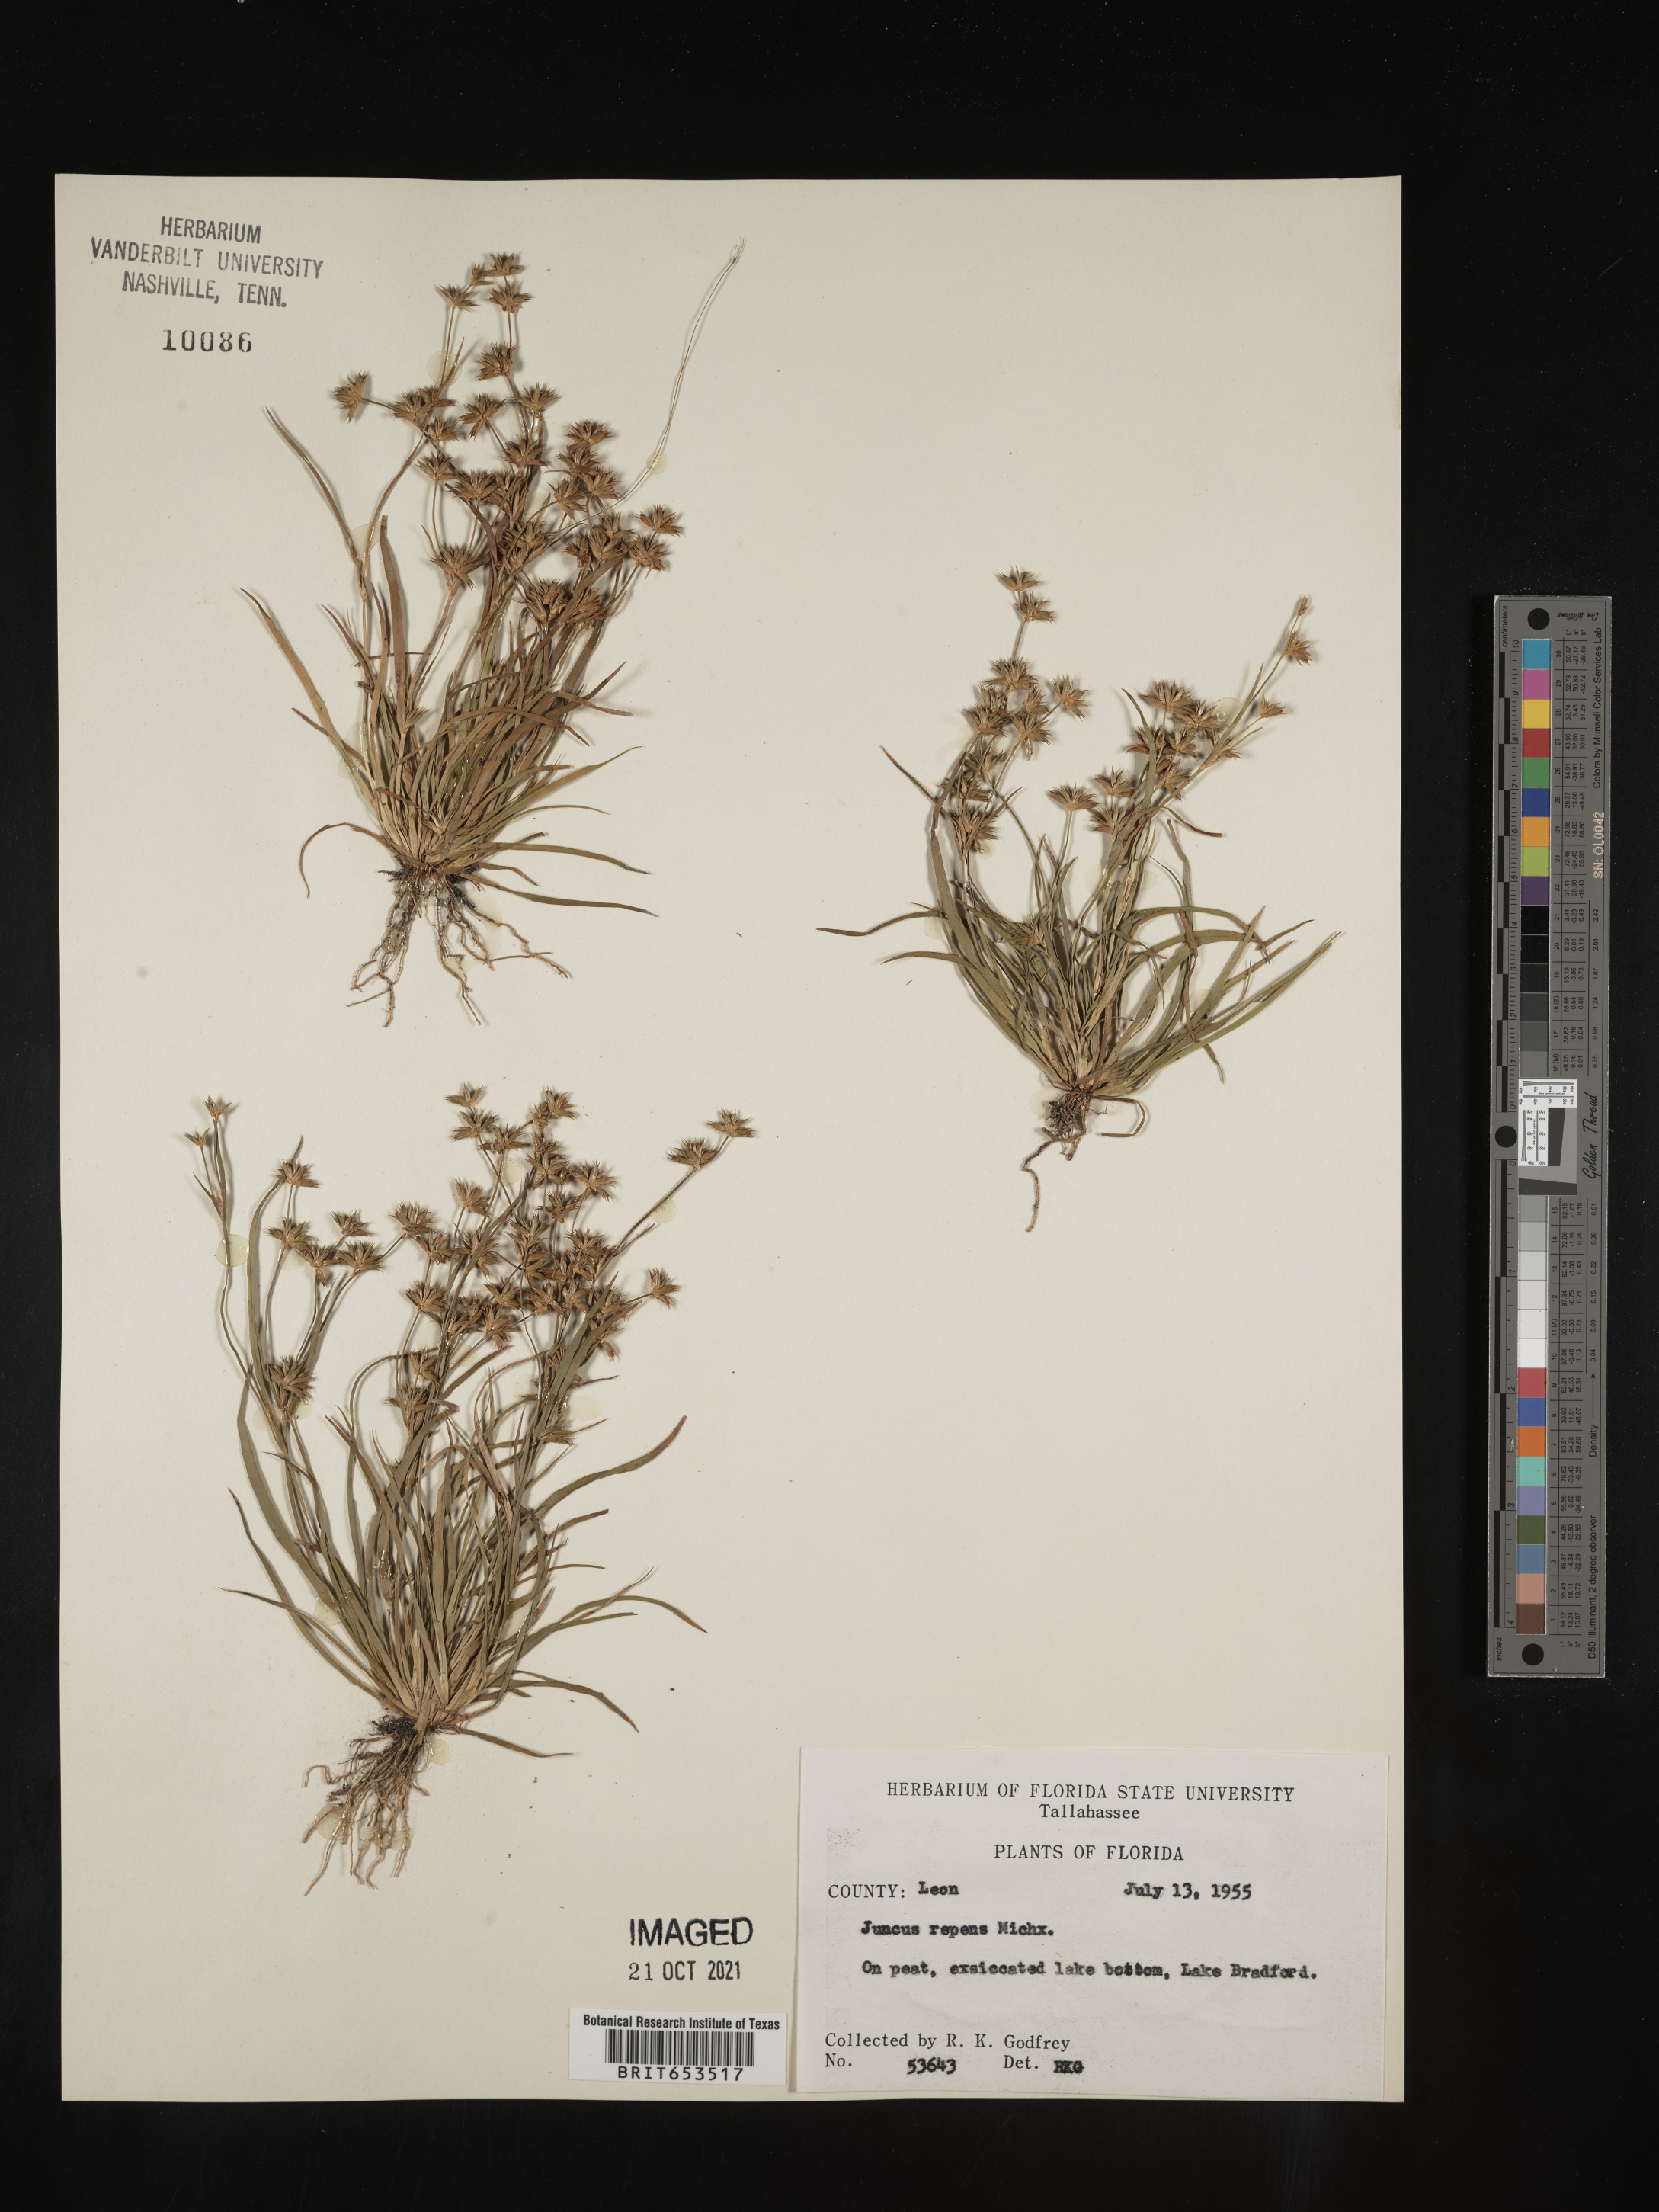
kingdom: Plantae
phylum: Tracheophyta
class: Liliopsida
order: Poales
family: Juncaceae
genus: Juncus
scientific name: Juncus repens
